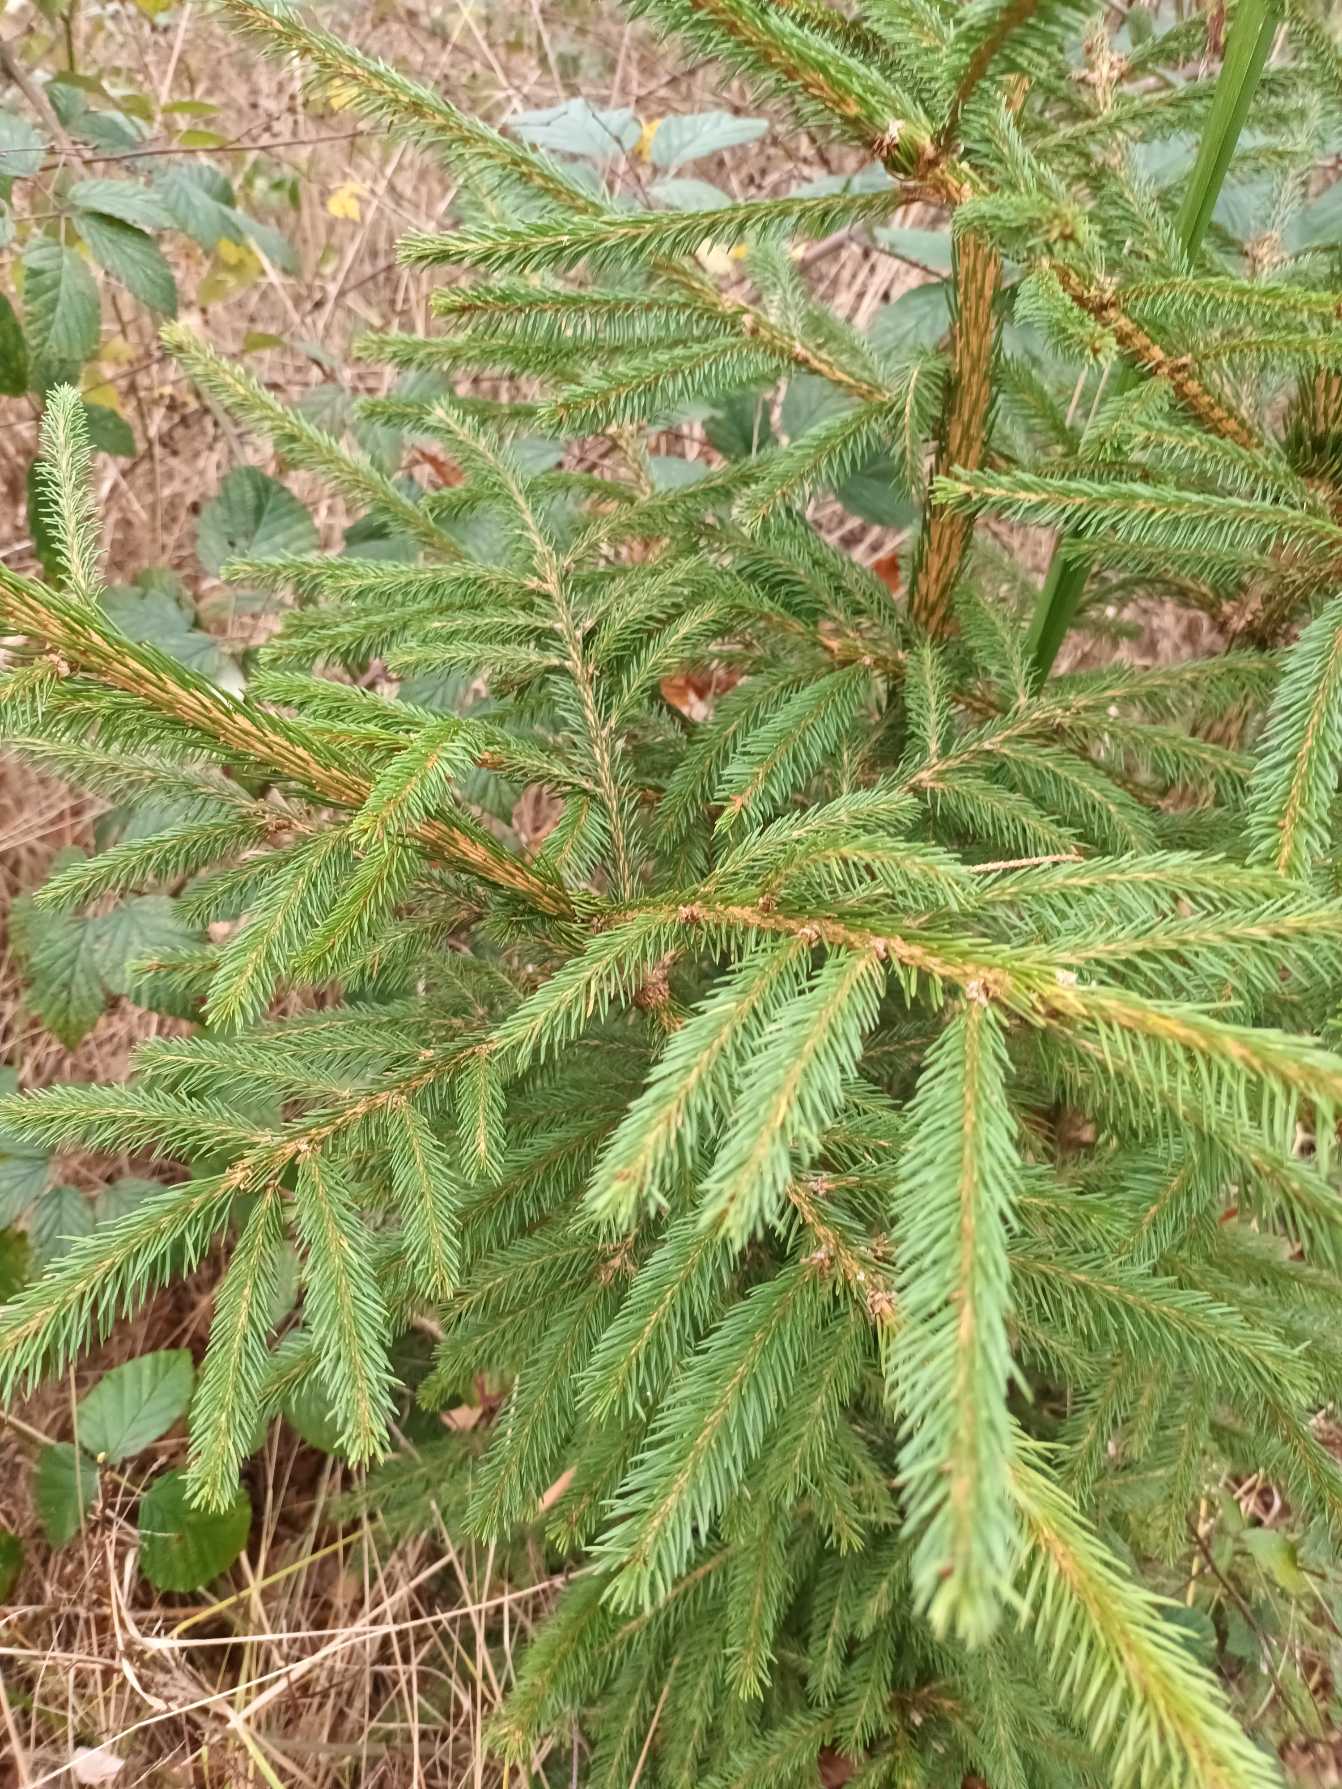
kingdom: Plantae
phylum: Tracheophyta
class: Pinopsida
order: Pinales
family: Pinaceae
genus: Picea
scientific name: Picea abies
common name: Rød-gran
